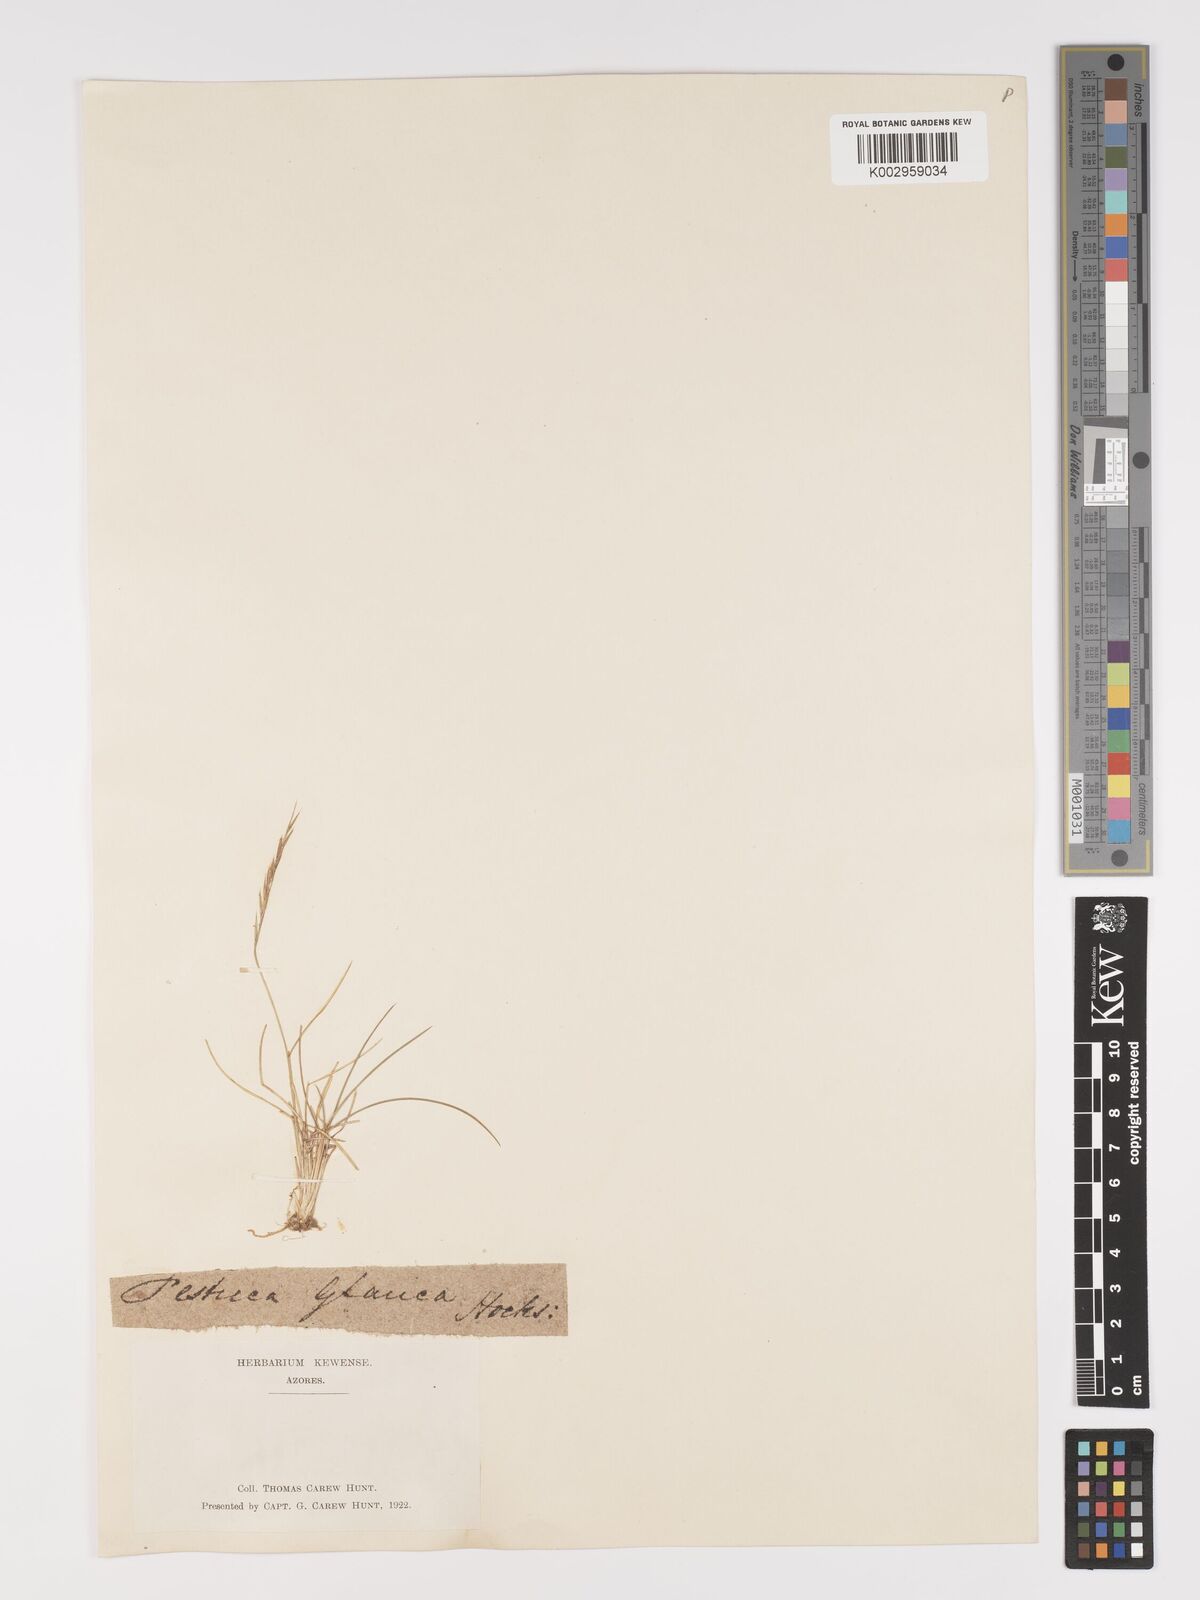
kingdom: Plantae
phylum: Tracheophyta
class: Liliopsida
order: Poales
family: Poaceae
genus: Nardus
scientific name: Nardus stricta
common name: Mat-grass
